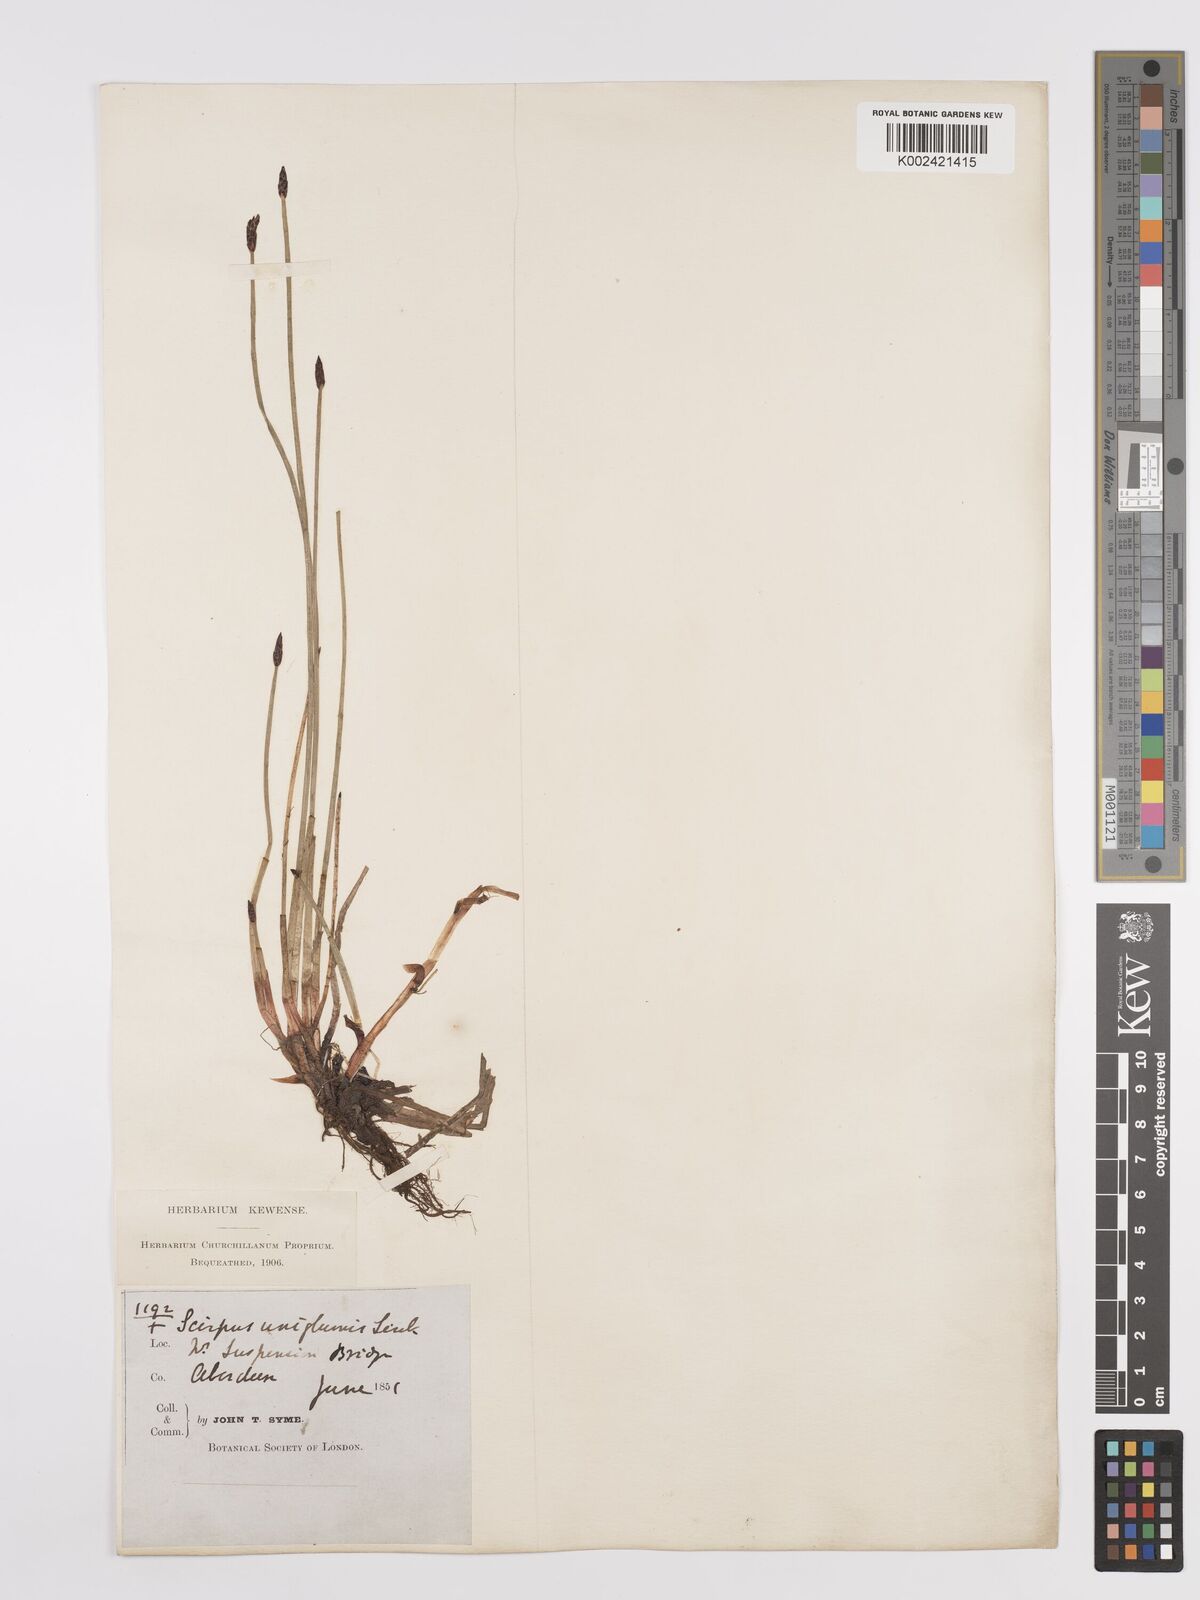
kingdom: Plantae
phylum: Tracheophyta
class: Liliopsida
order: Poales
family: Cyperaceae
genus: Eleocharis
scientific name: Eleocharis uniglumis
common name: Slender spike-rush
